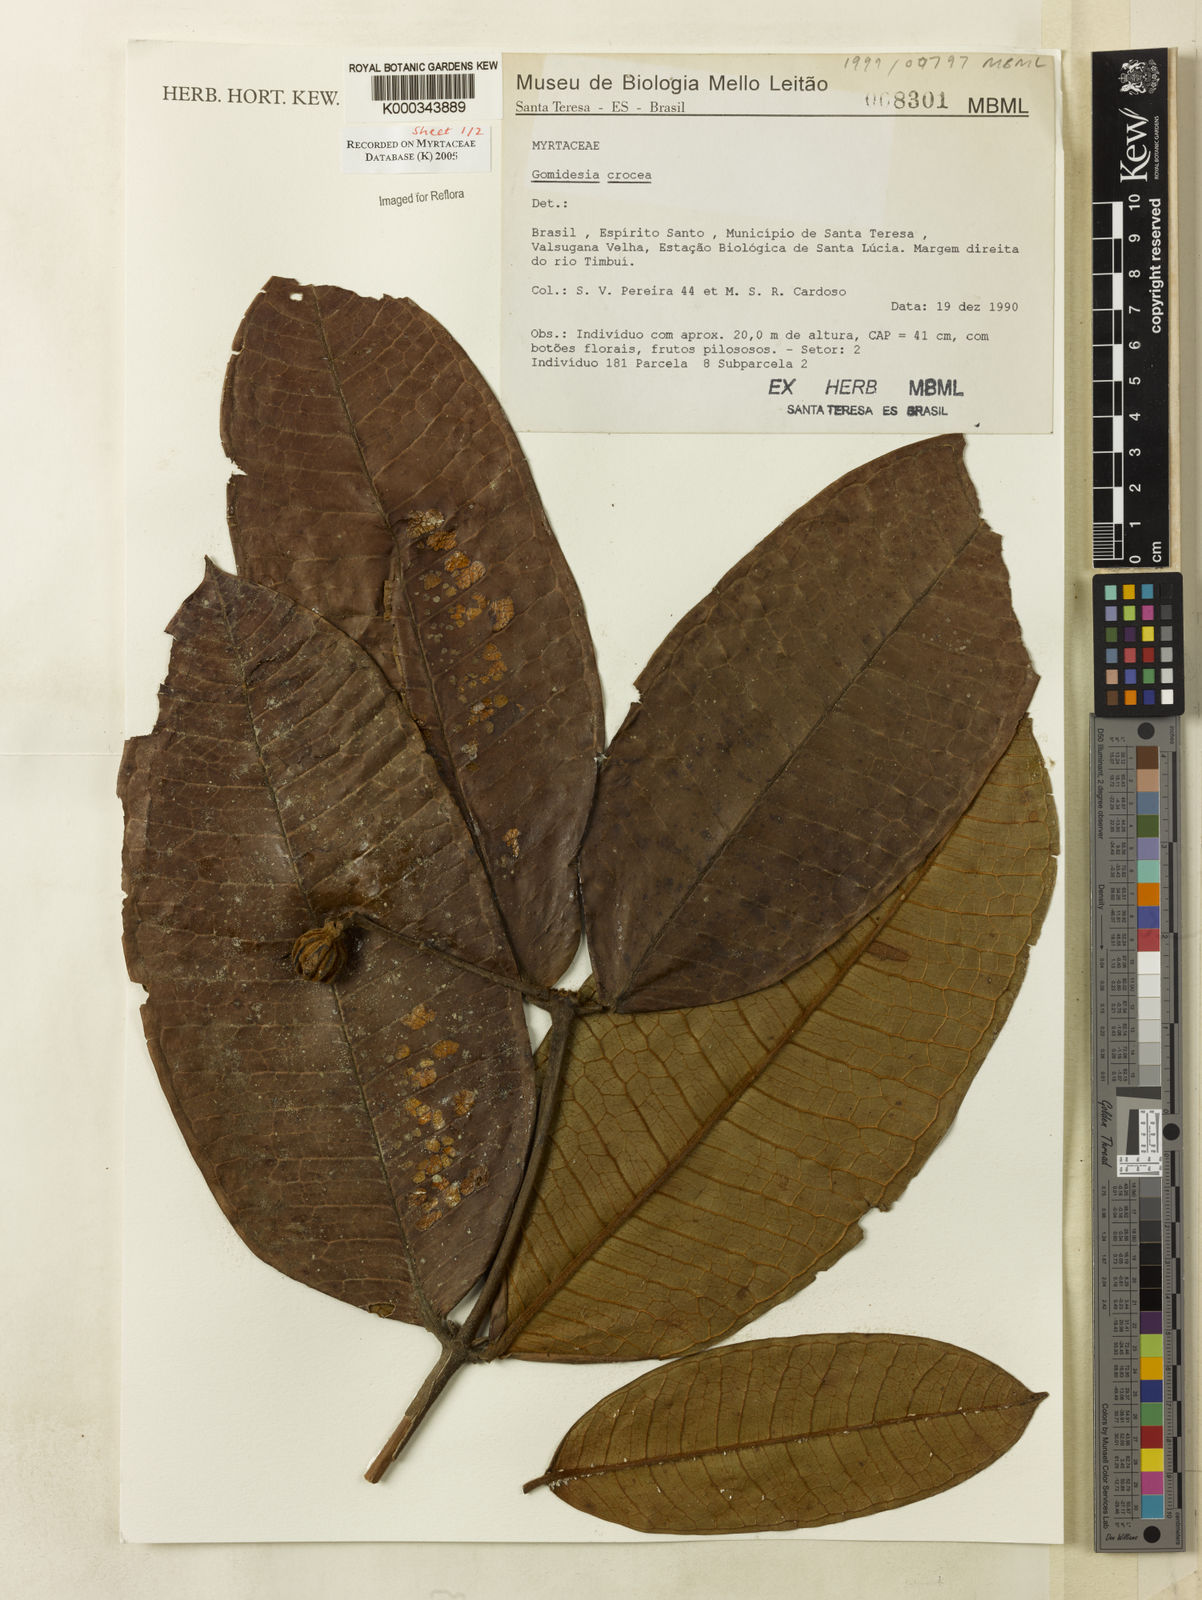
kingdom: Plantae
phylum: Tracheophyta
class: Magnoliopsida
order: Myrtales
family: Myrtaceae
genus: Myrcia
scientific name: Myrcia amplexicaulis
